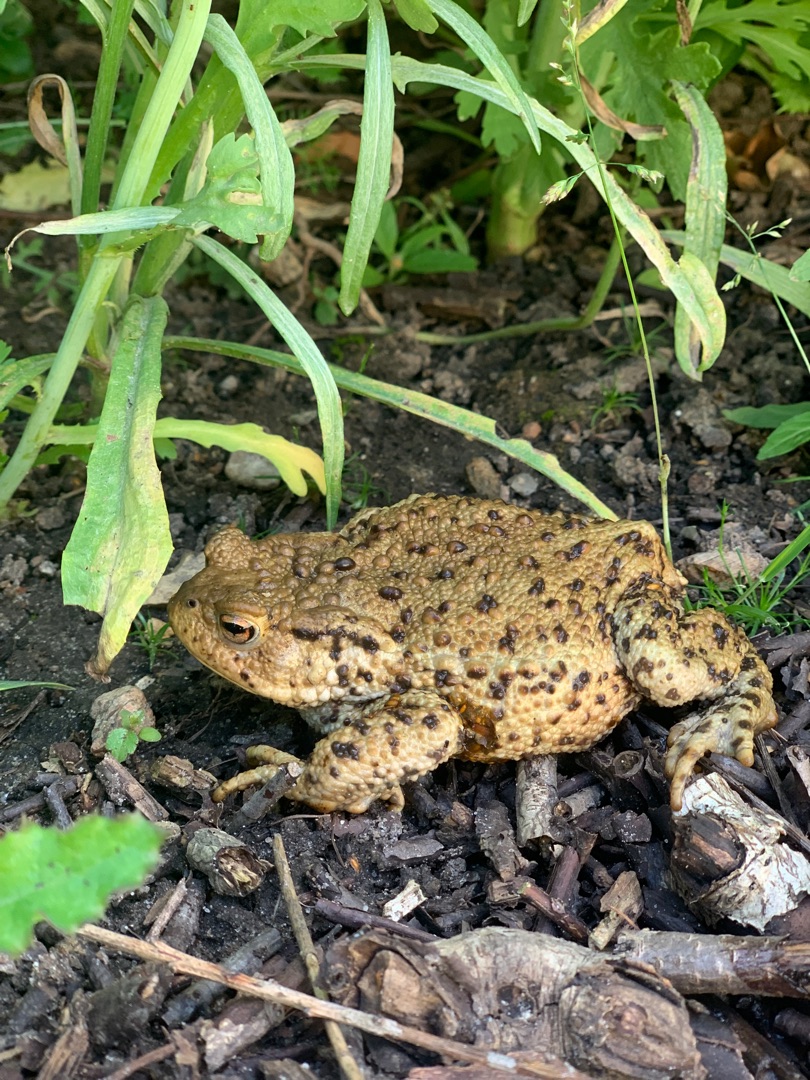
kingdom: Animalia
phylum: Chordata
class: Amphibia
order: Anura
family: Bufonidae
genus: Bufo
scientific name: Bufo bufo
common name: Skrubtudse
